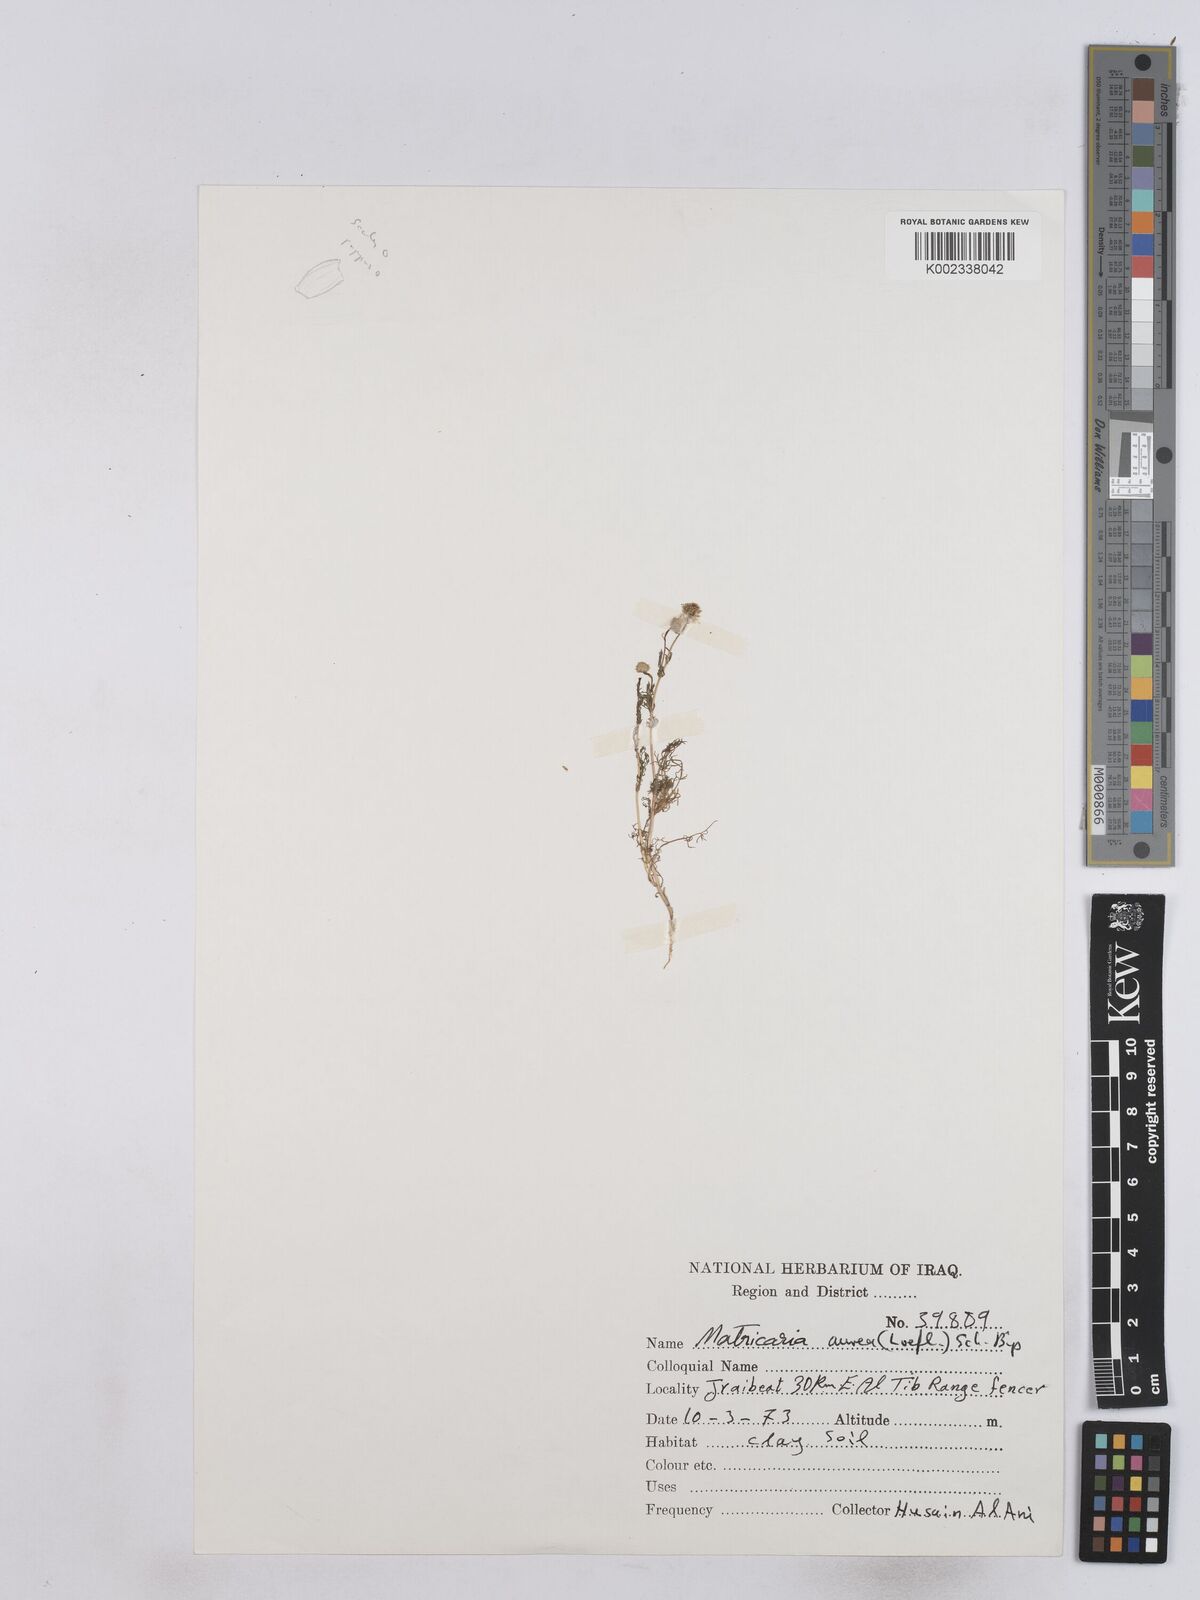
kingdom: Plantae
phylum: Tracheophyta
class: Magnoliopsida
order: Asterales
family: Asteraceae
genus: Matricaria
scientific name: Matricaria aurea
